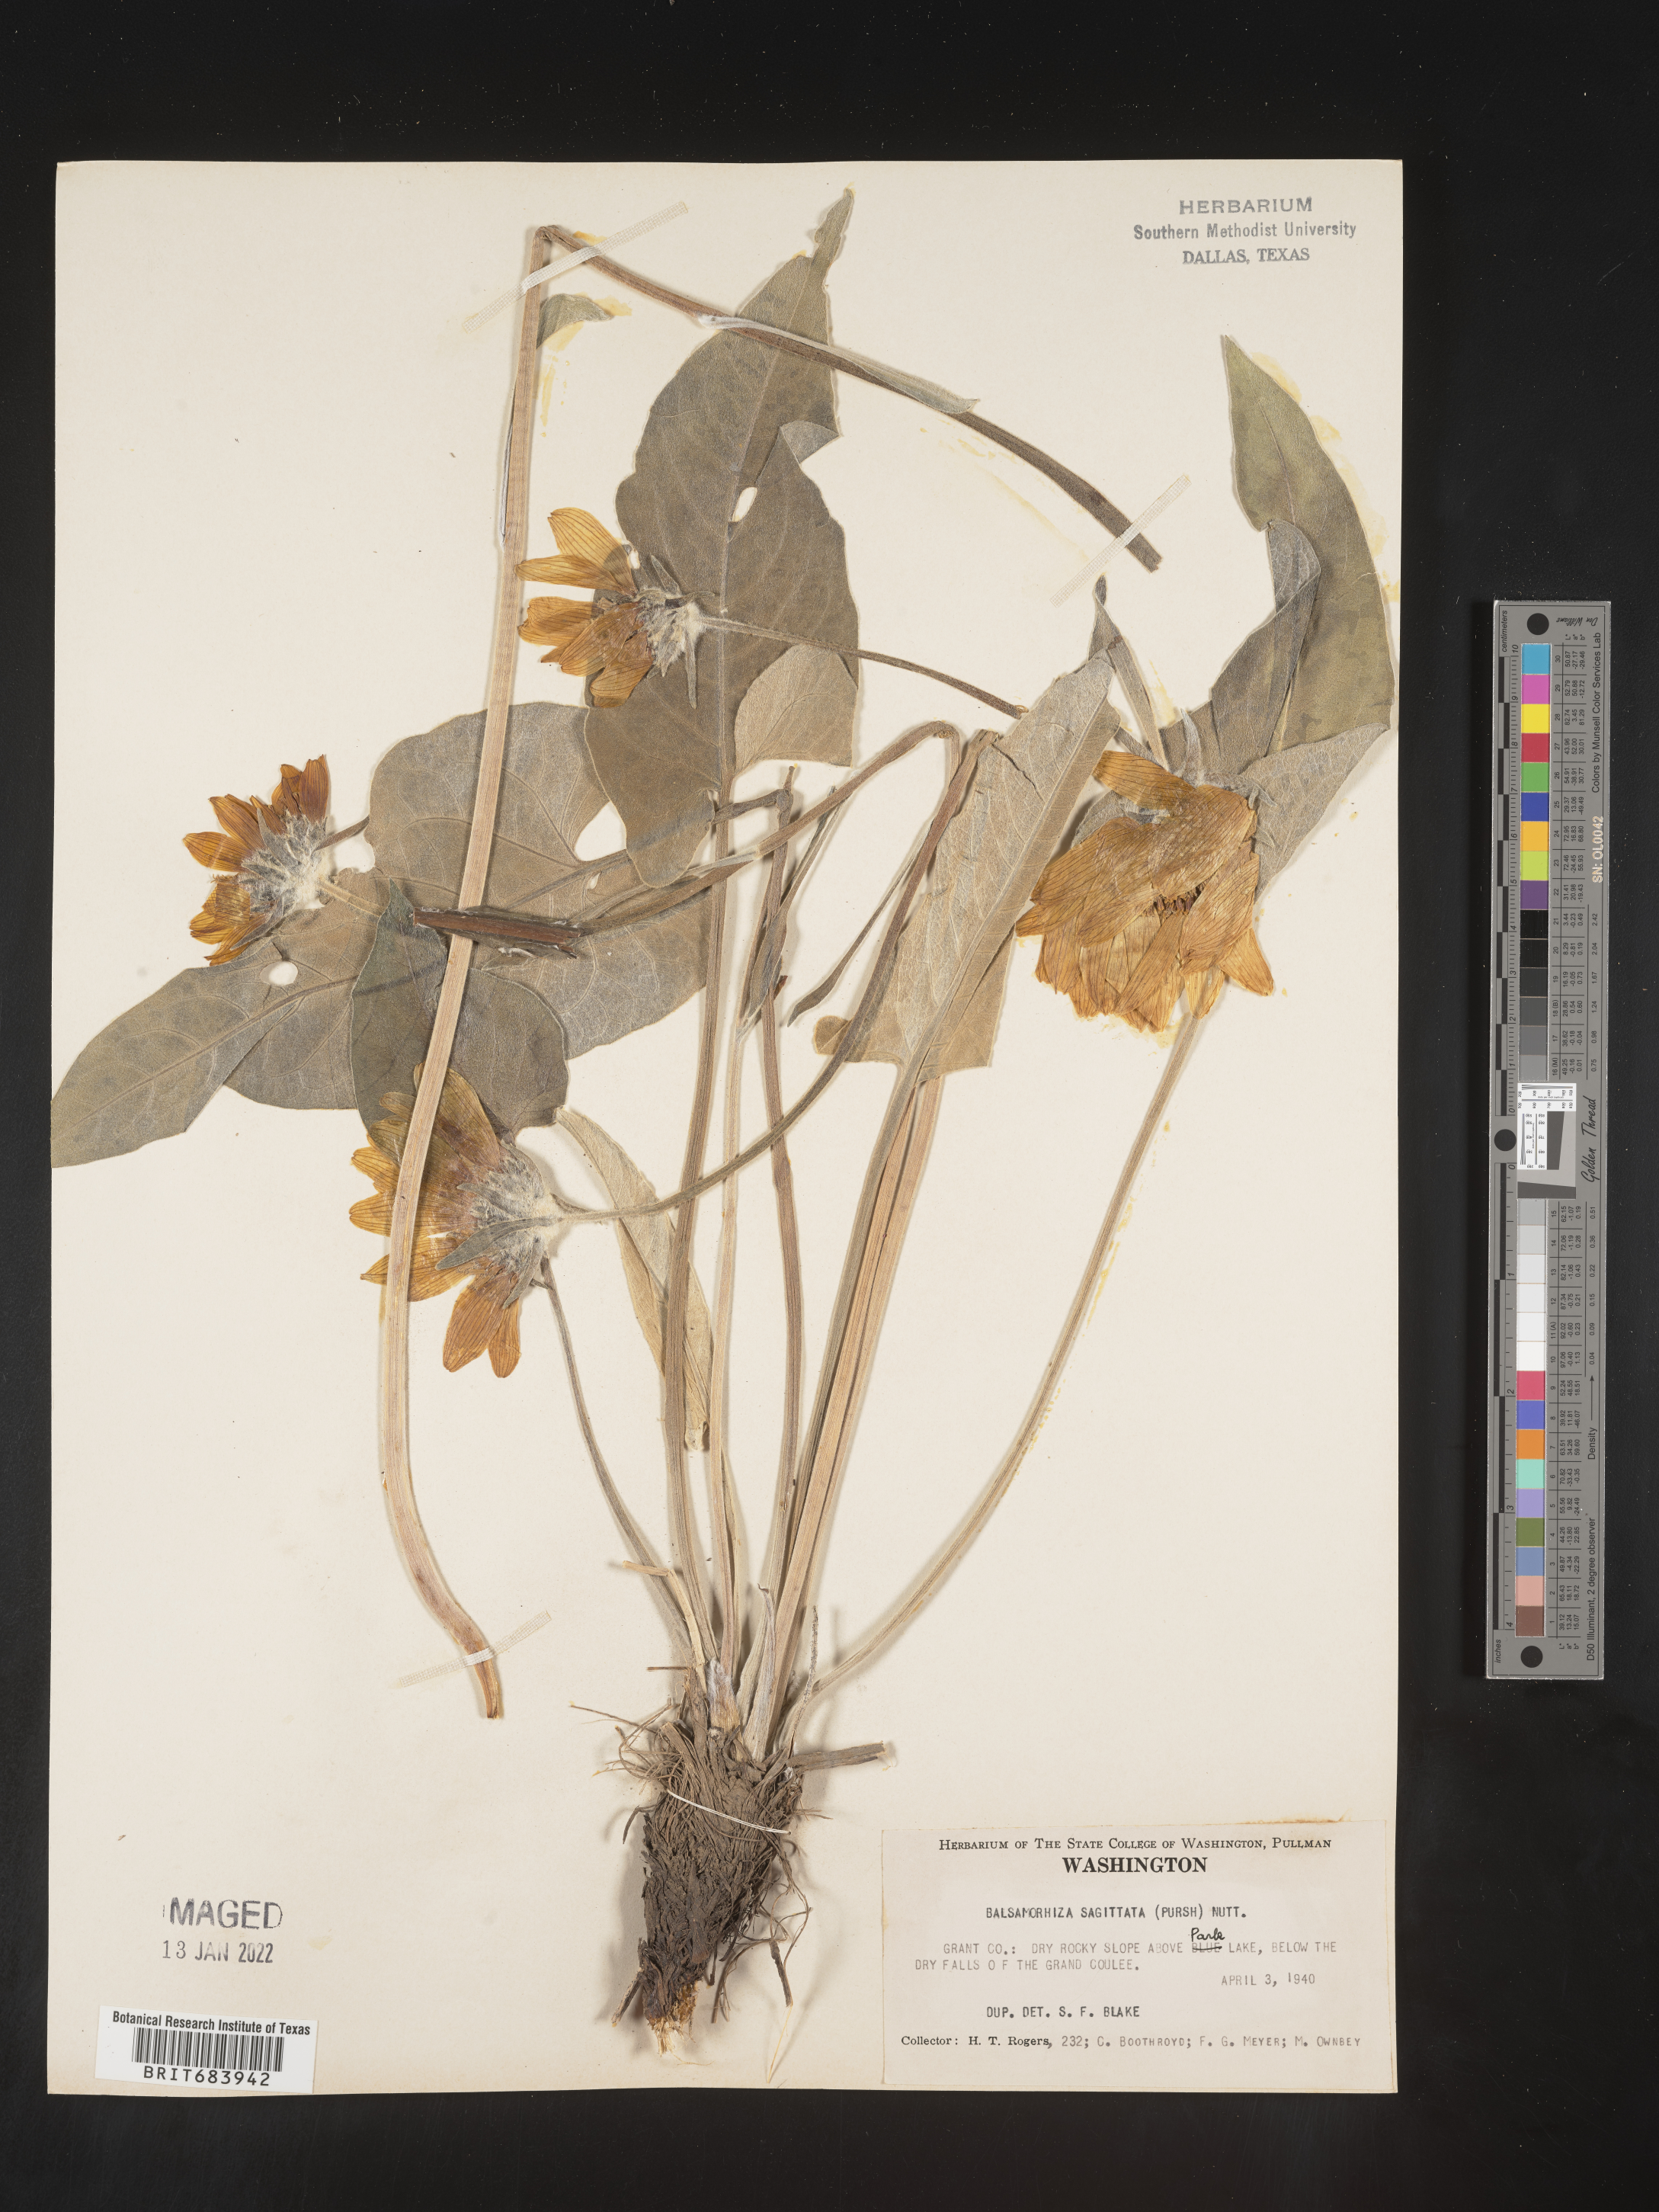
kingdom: Plantae
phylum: Tracheophyta
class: Magnoliopsida
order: Asterales
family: Asteraceae
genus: Wyethia
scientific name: Wyethia sagittata
